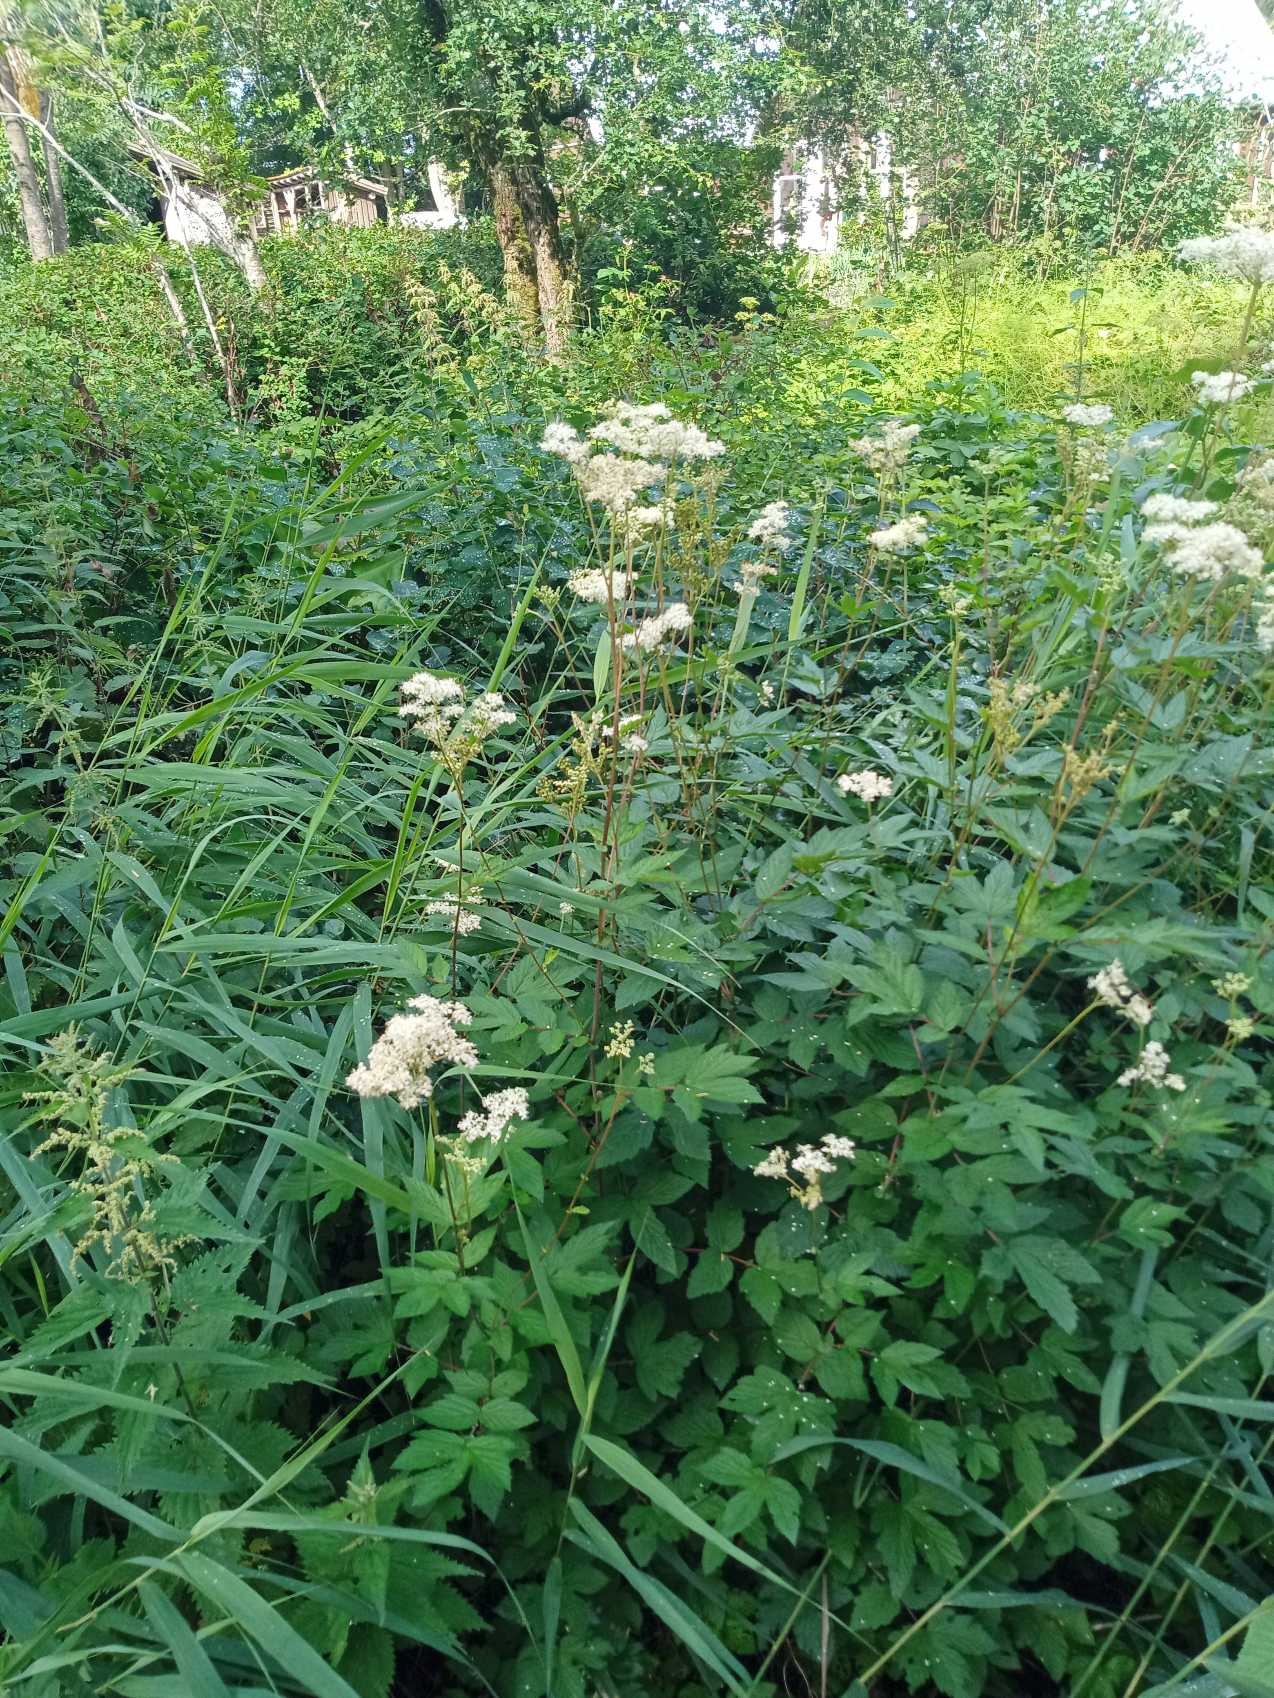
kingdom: Plantae
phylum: Tracheophyta
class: Magnoliopsida
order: Rosales
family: Rosaceae
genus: Filipendula
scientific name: Filipendula ulmaria
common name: Almindelig mjødurt
